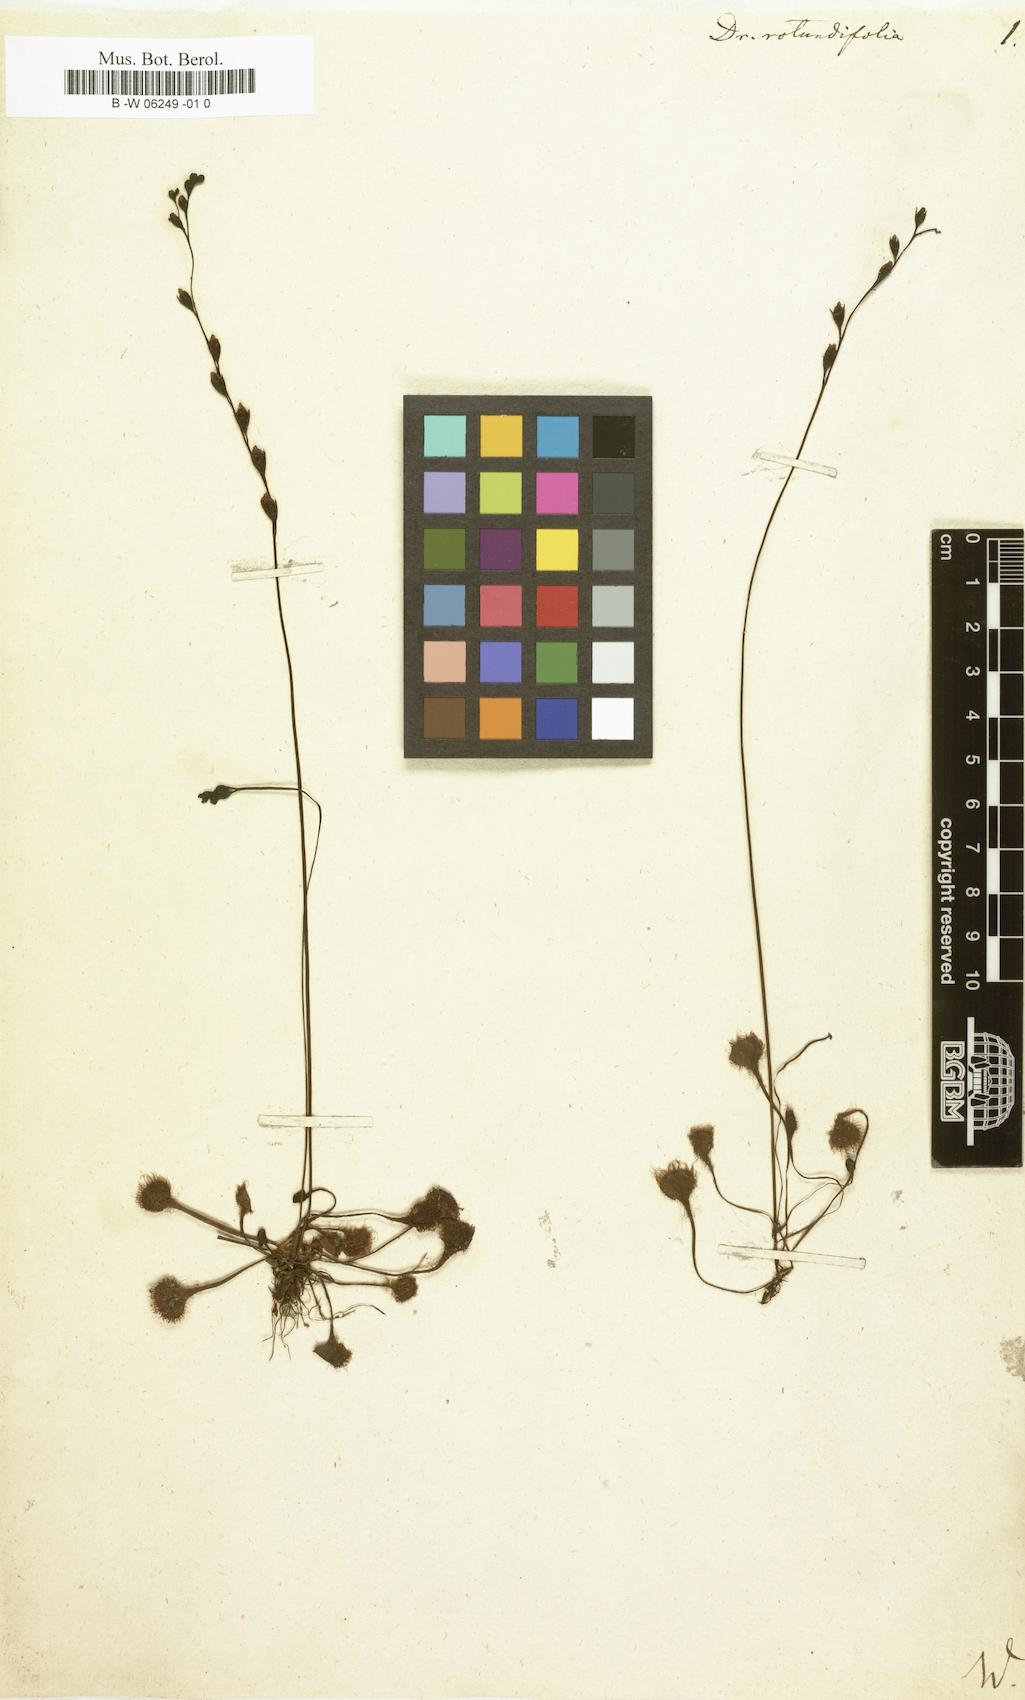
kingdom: Plantae
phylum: Tracheophyta
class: Magnoliopsida
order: Caryophyllales
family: Droseraceae
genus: Drosera
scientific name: Drosera rotundifolia
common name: Round-leaved sundew
